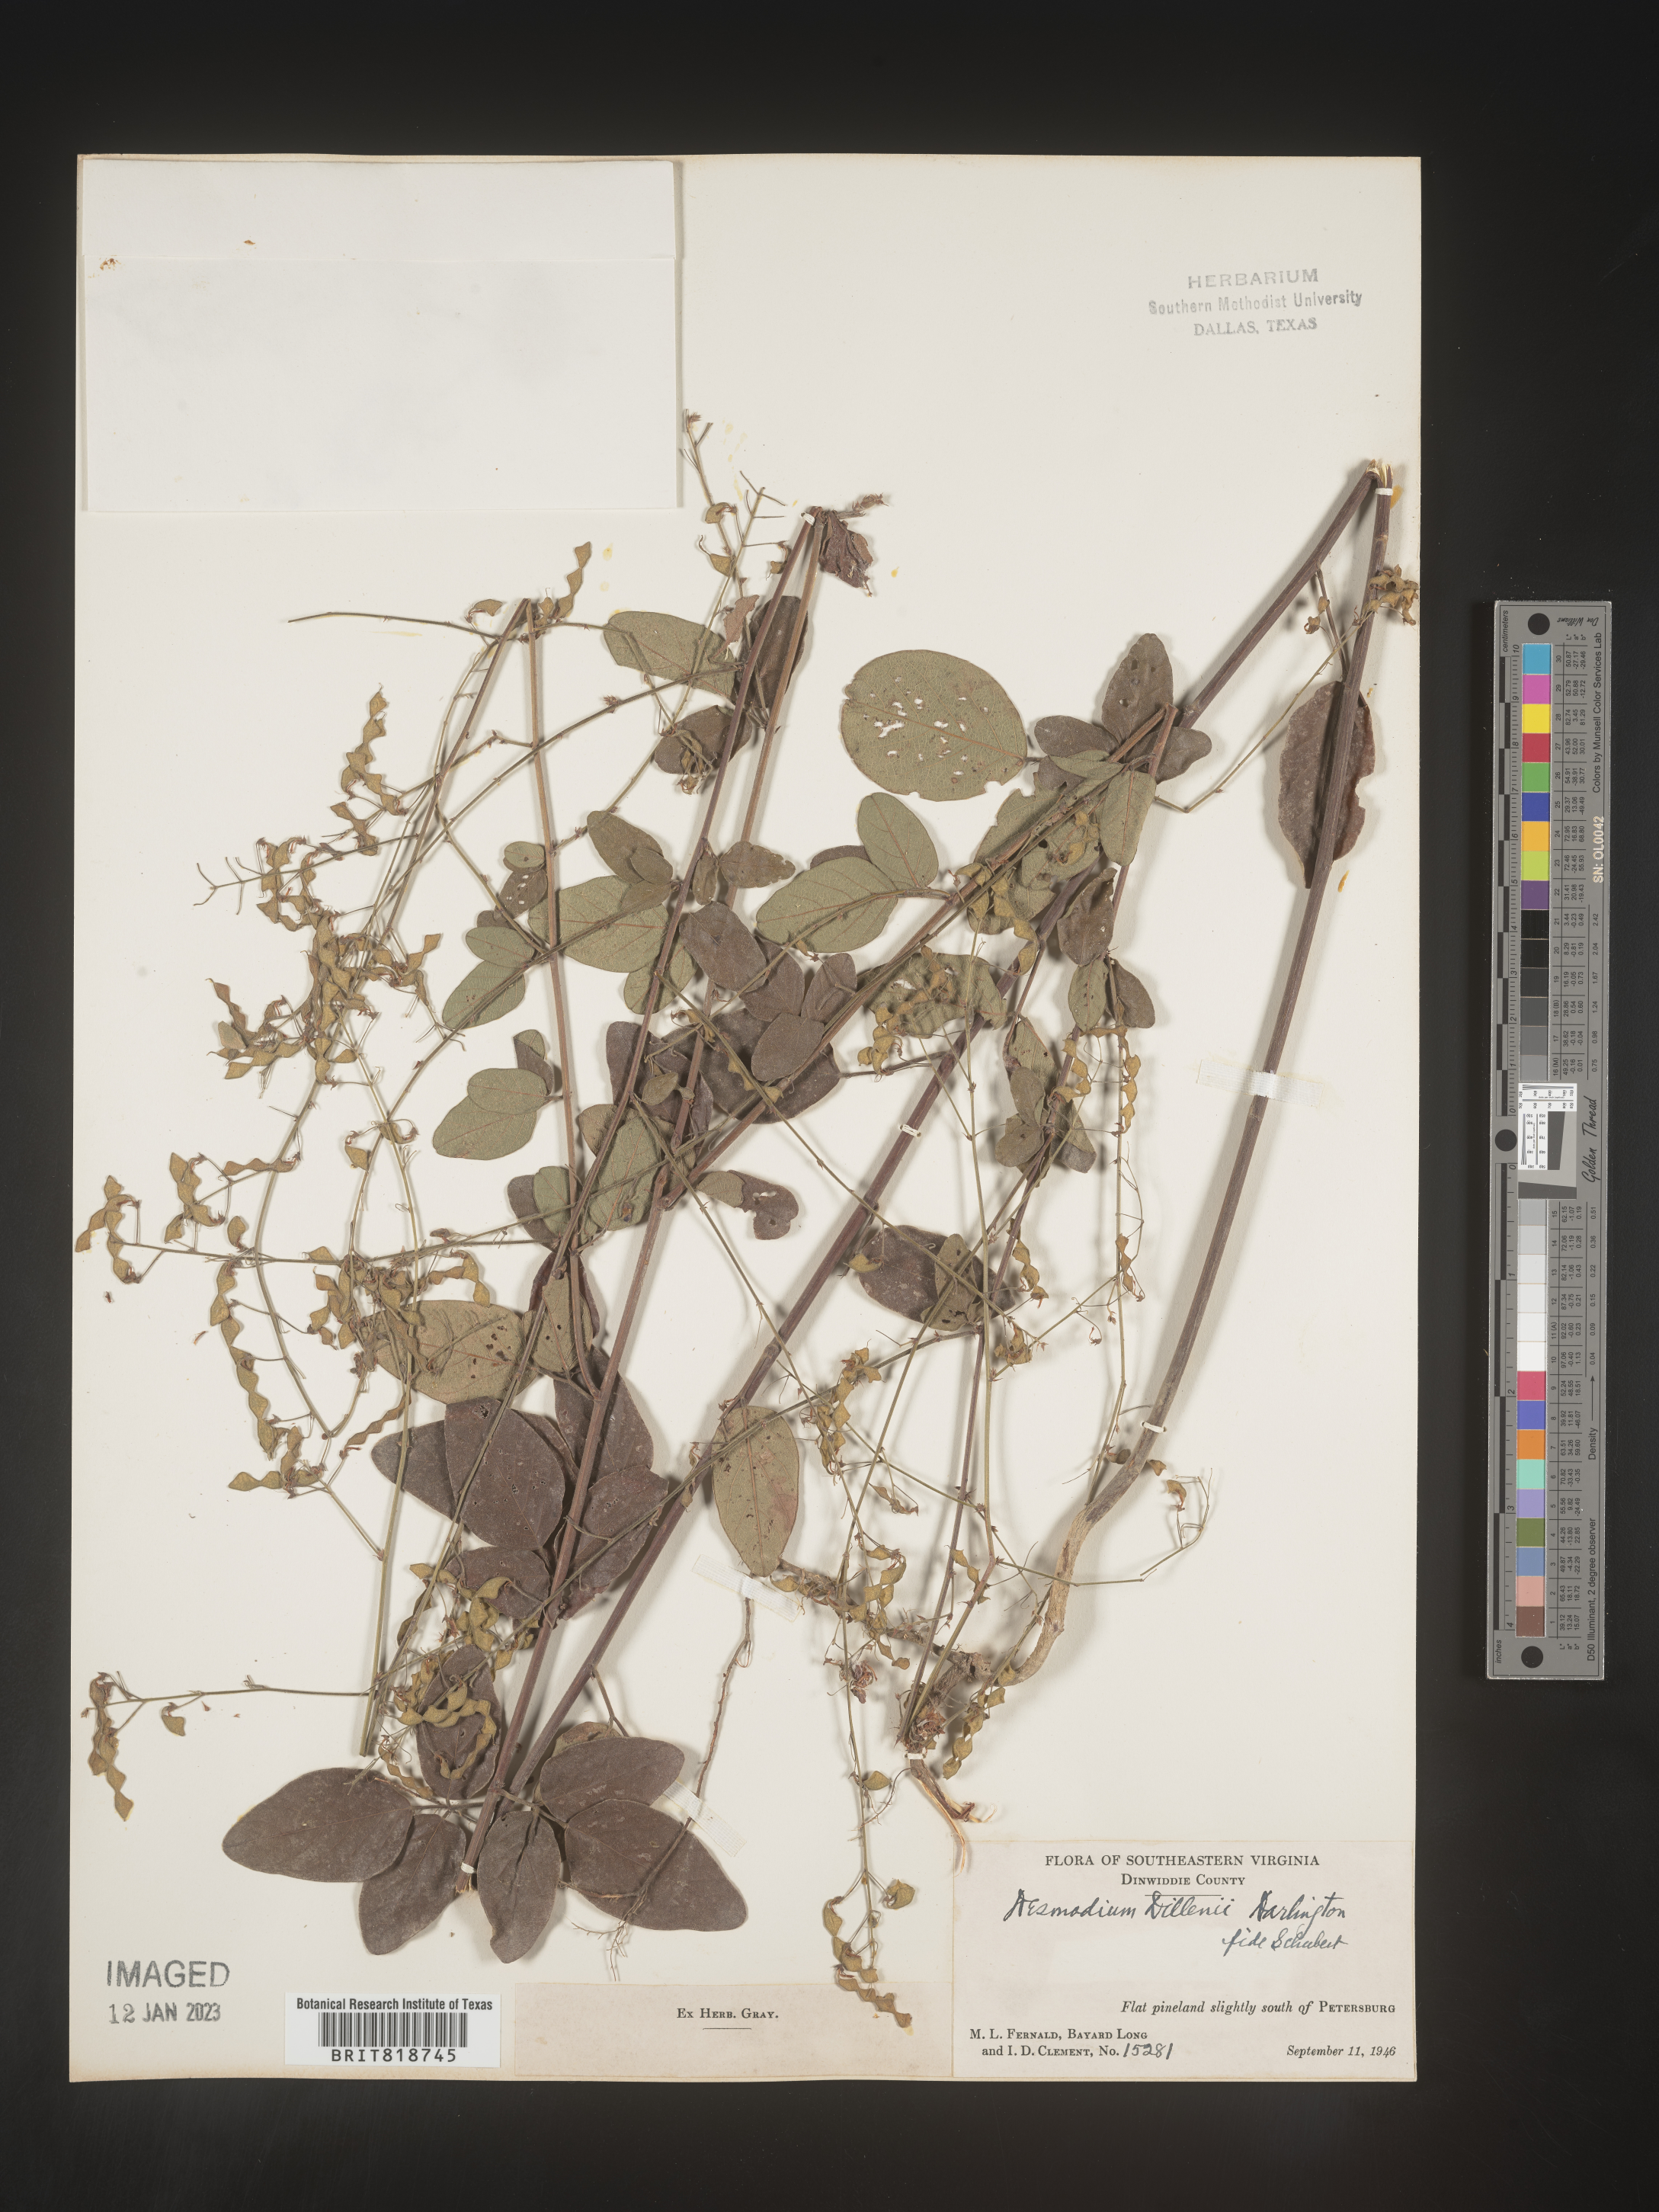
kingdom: Plantae
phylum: Tracheophyta
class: Magnoliopsida
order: Fabales
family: Fabaceae
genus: Desmodium
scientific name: Desmodium perplexum
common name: Perplexed tick trefoil
